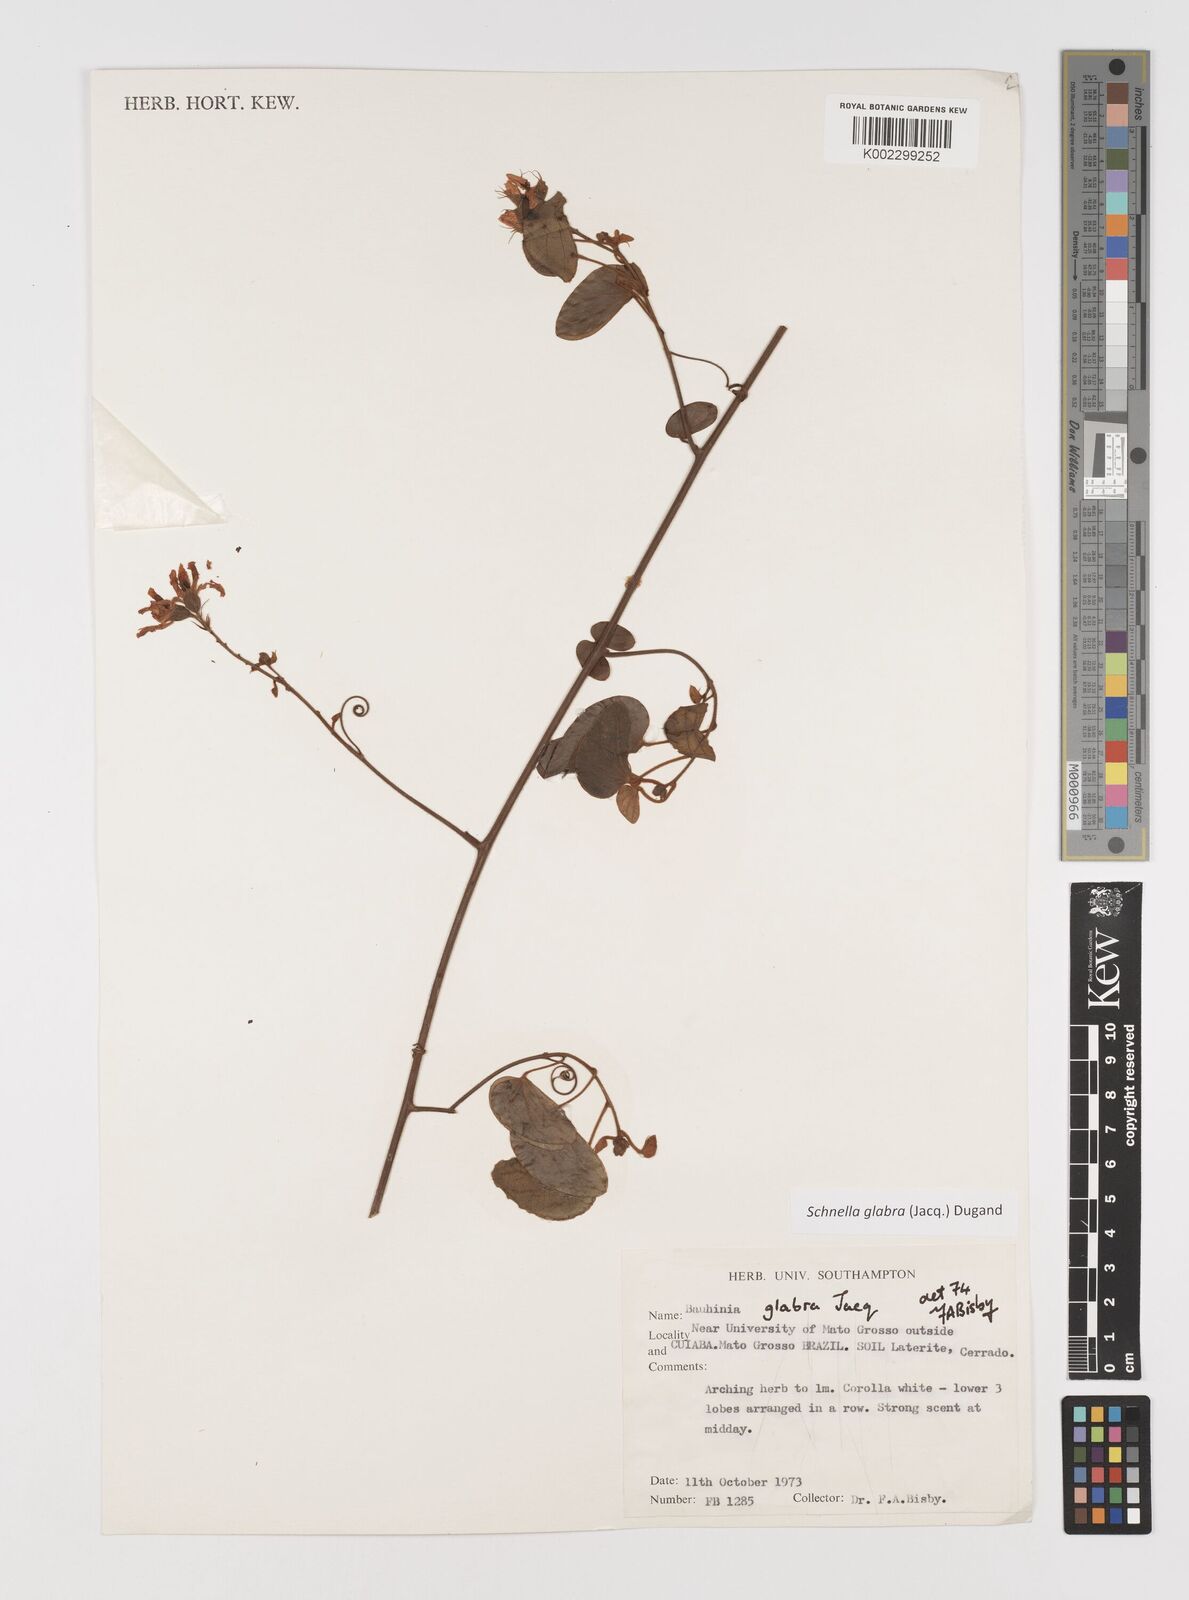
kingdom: Plantae
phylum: Tracheophyta
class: Magnoliopsida
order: Fabales
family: Fabaceae
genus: Schnella
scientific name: Schnella glabra
